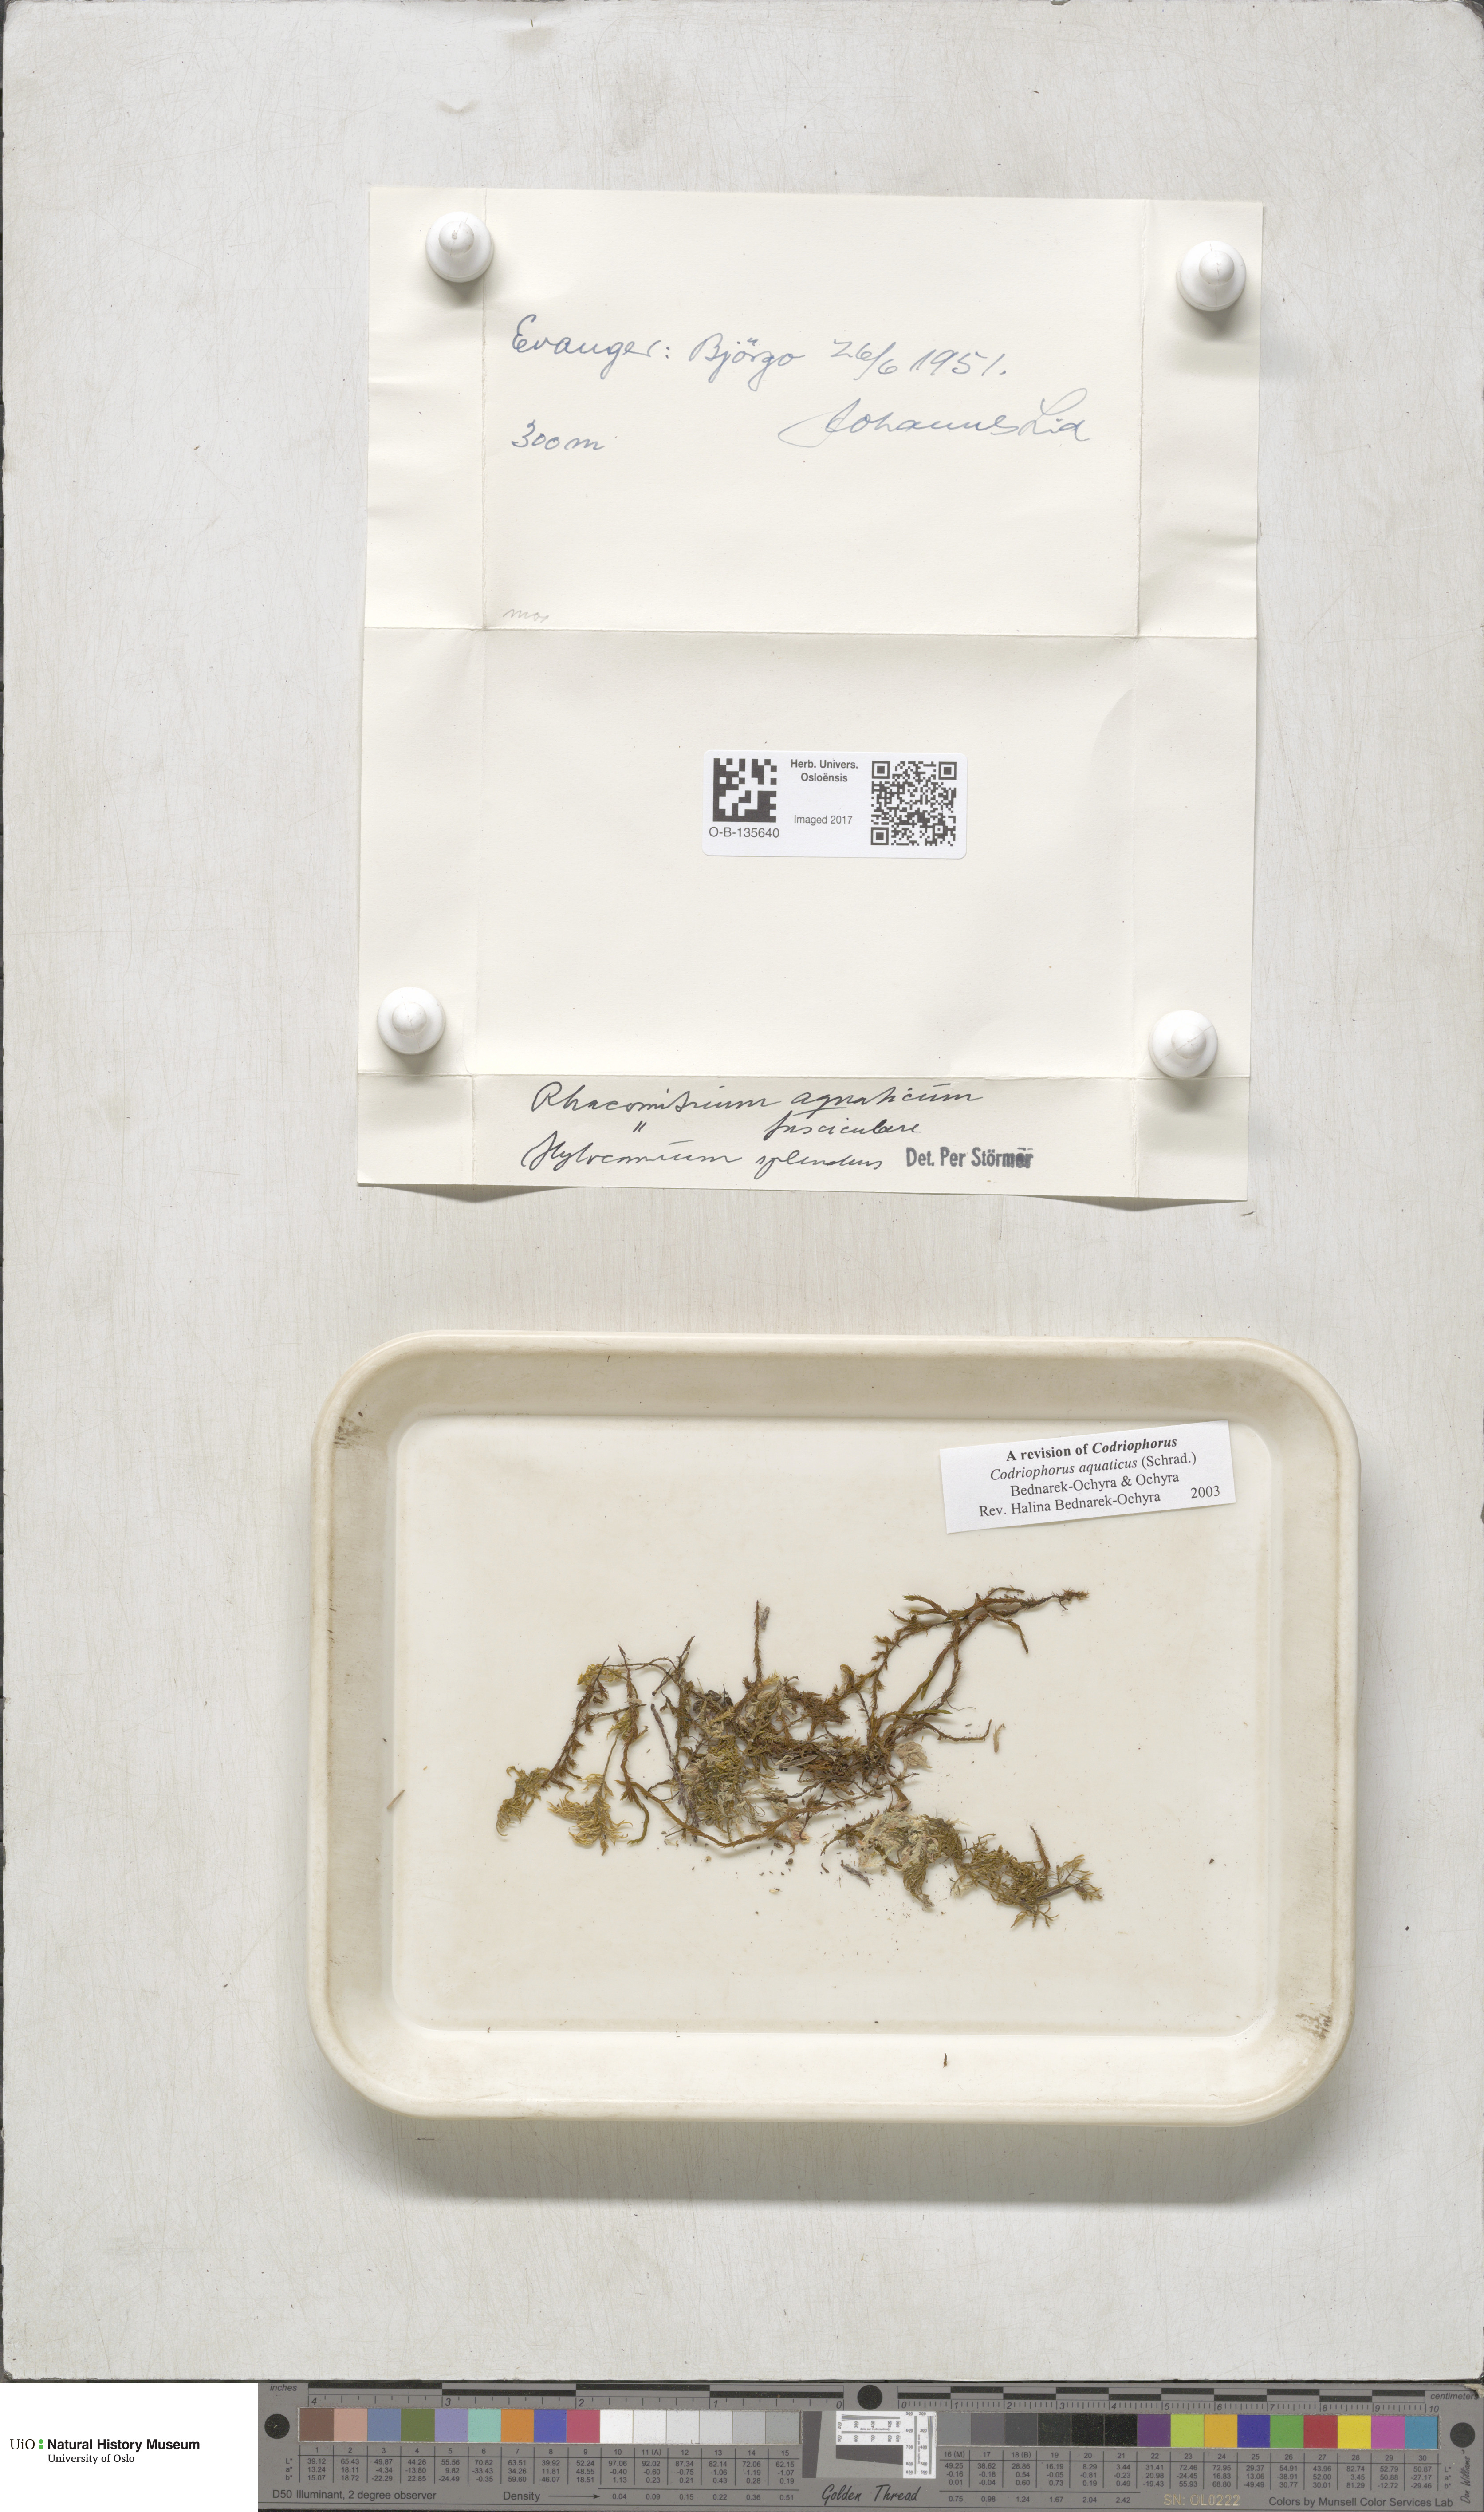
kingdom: Plantae
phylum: Bryophyta
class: Bryopsida
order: Grimmiales
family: Grimmiaceae
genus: Codriophorus
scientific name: Codriophorus aquaticus
